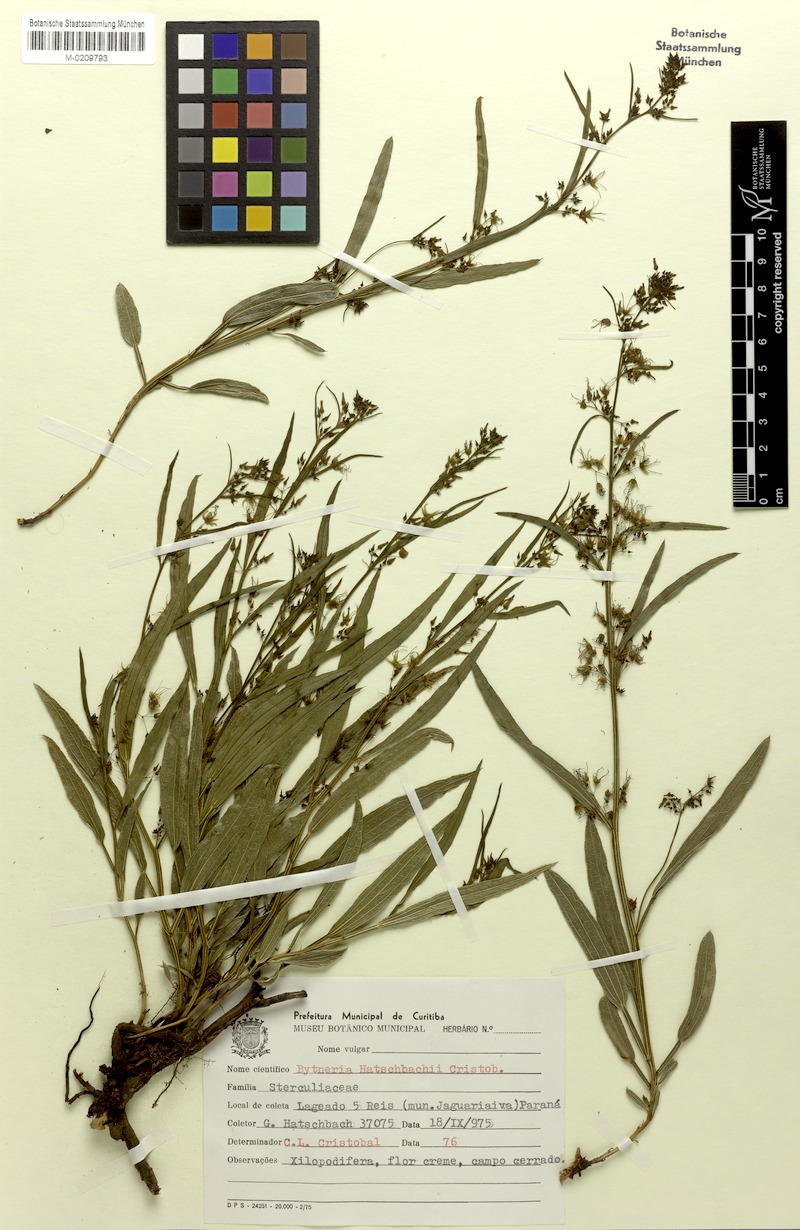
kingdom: Plantae
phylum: Tracheophyta
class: Magnoliopsida
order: Malvales
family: Malvaceae
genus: Byttneria
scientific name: Byttneria hatschbachii
